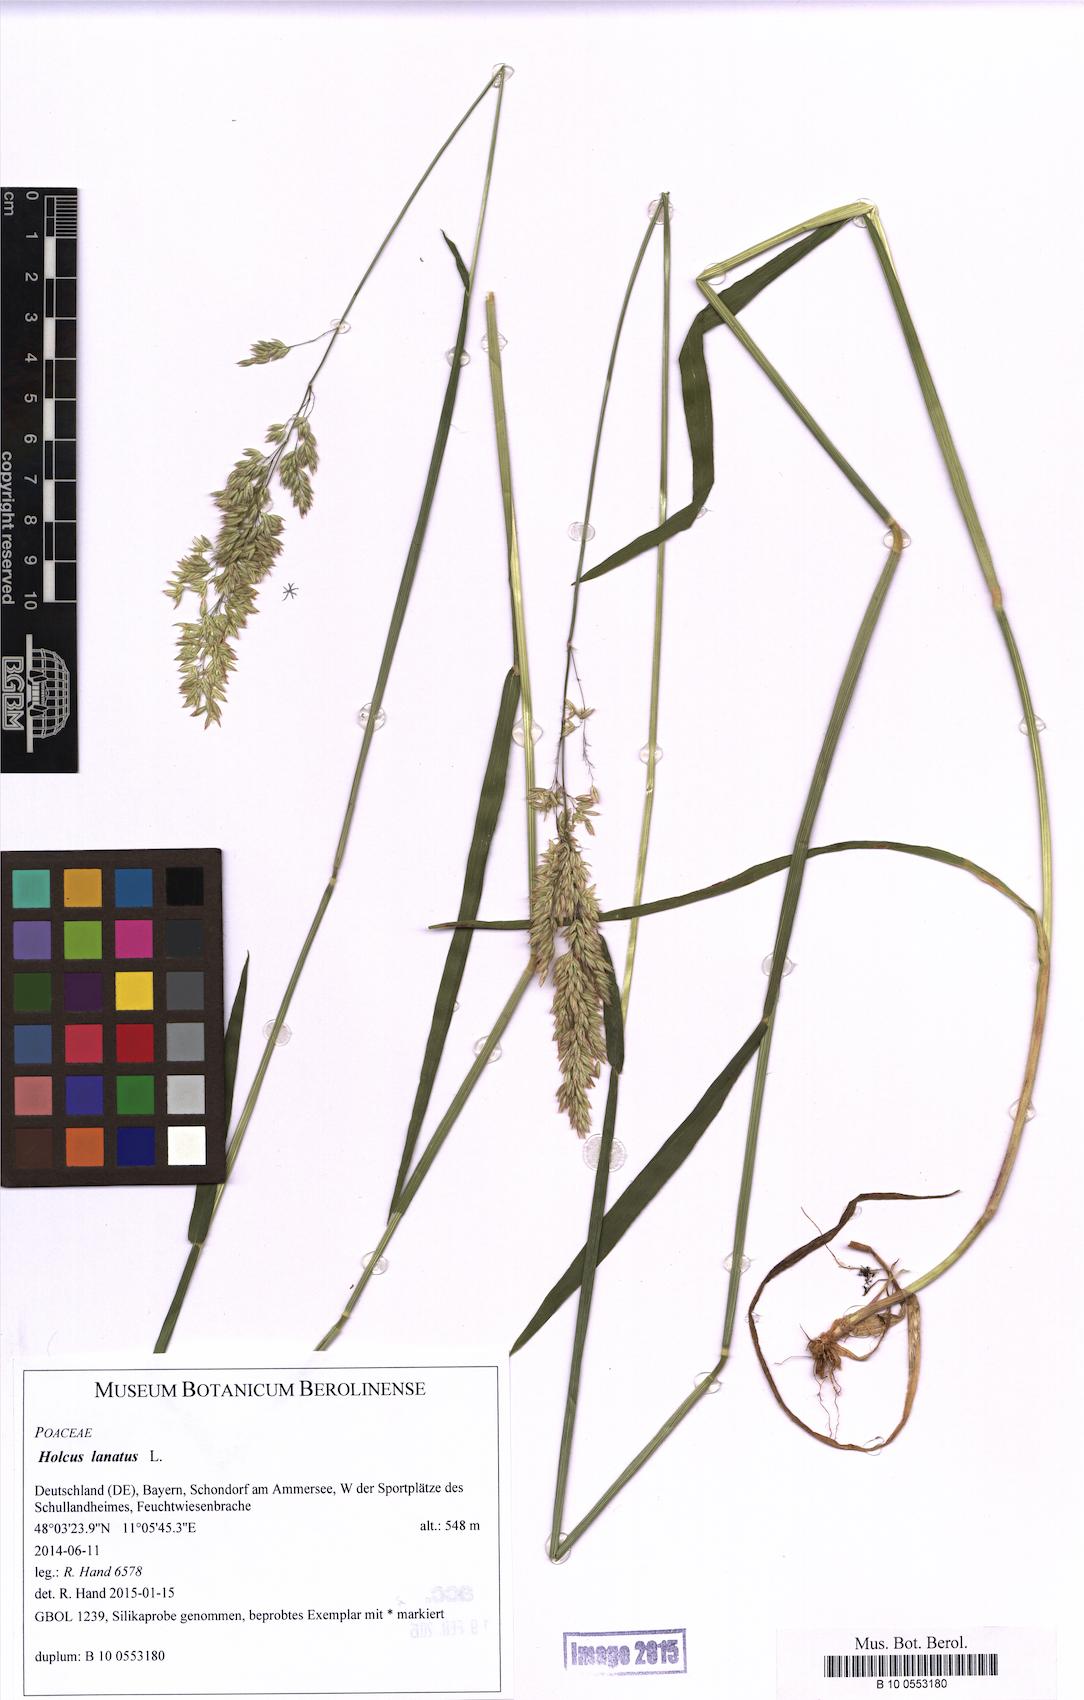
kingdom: Plantae
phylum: Tracheophyta
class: Liliopsida
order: Poales
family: Poaceae
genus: Holcus
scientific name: Holcus lanatus
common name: Yorkshire-fog
